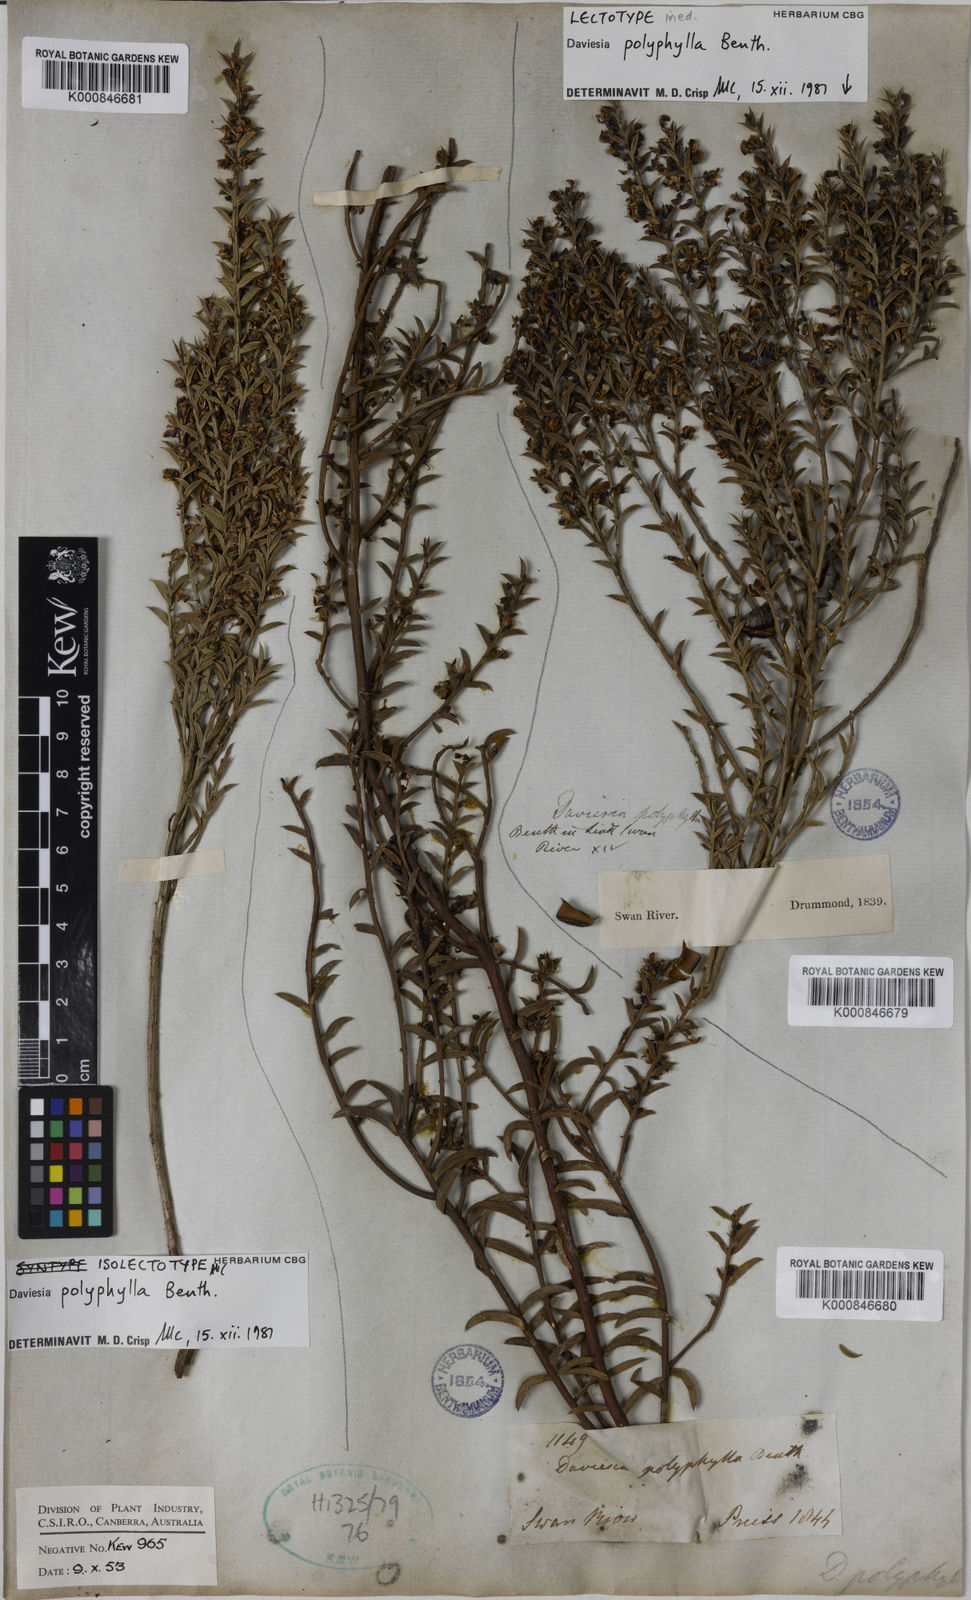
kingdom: Plantae
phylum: Tracheophyta
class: Magnoliopsida
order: Fabales
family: Fabaceae
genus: Daviesia
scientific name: Daviesia polyphylla
